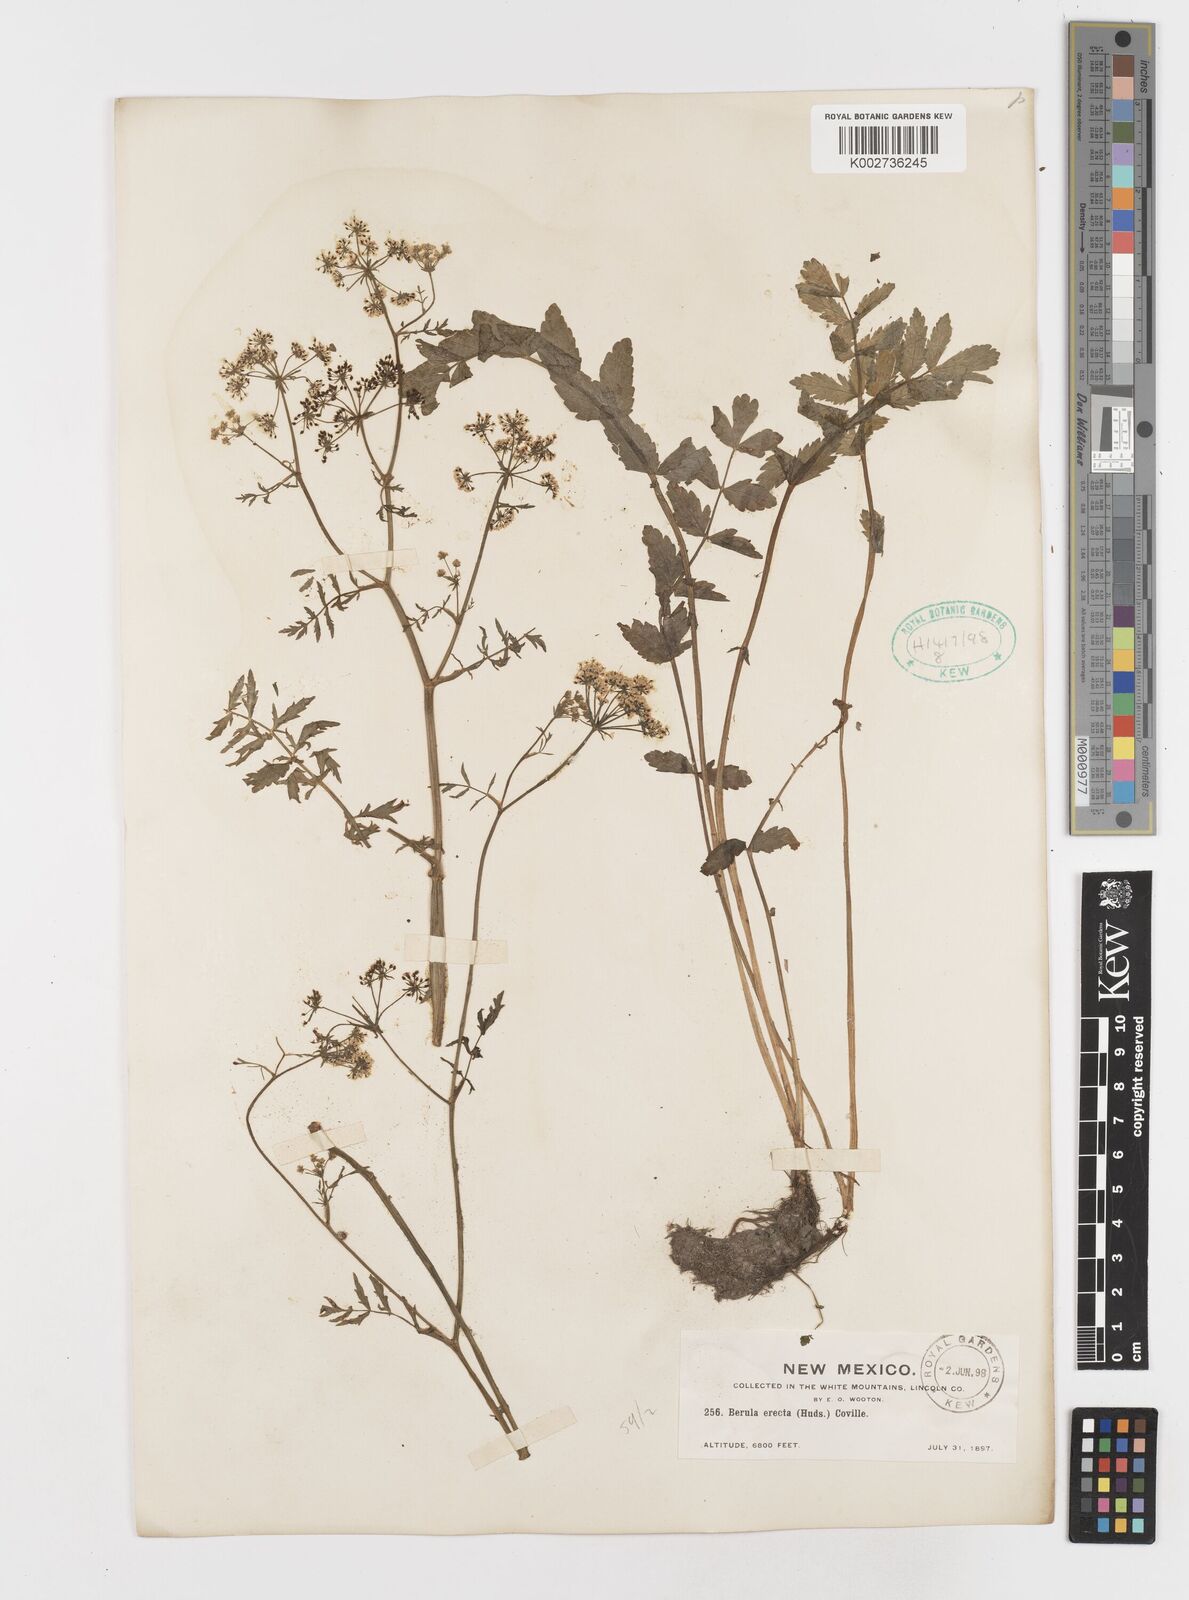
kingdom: Plantae
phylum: Tracheophyta
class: Magnoliopsida
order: Apiales
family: Apiaceae
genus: Berula
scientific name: Berula erecta
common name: Lesser water-parsnip
